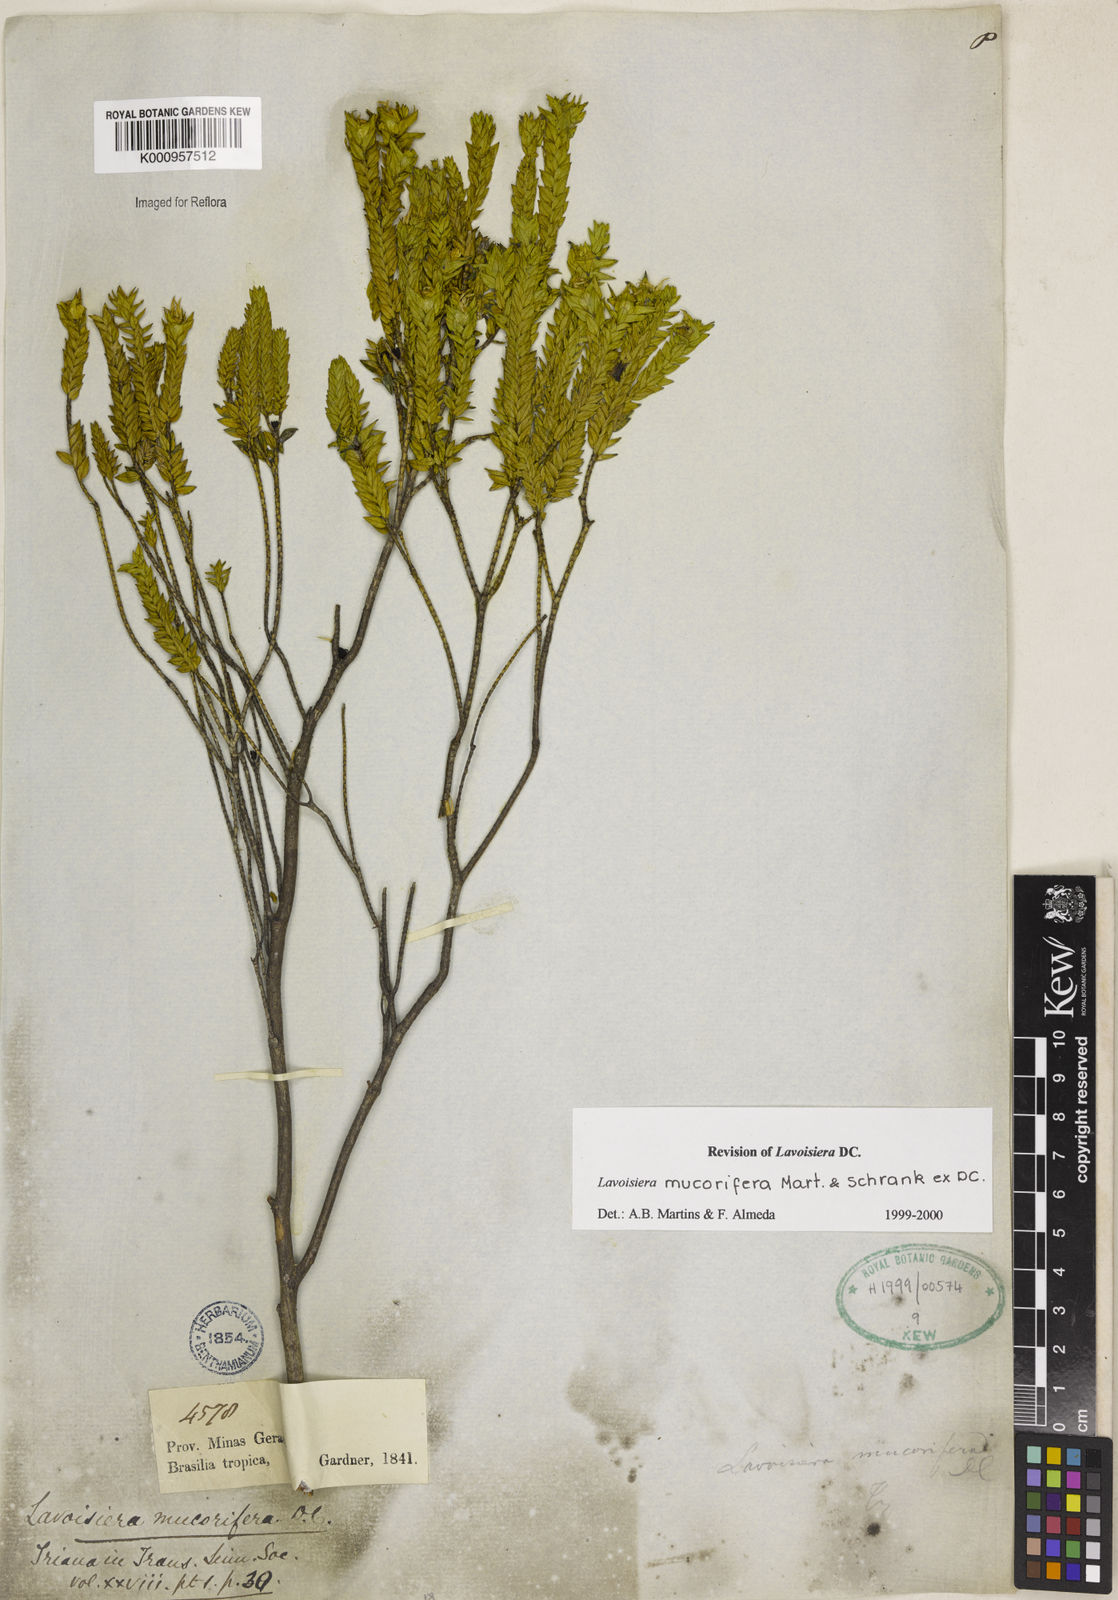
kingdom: Plantae
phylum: Tracheophyta
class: Magnoliopsida
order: Myrtales
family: Melastomataceae
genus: Microlicia
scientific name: Microlicia mucorifera
